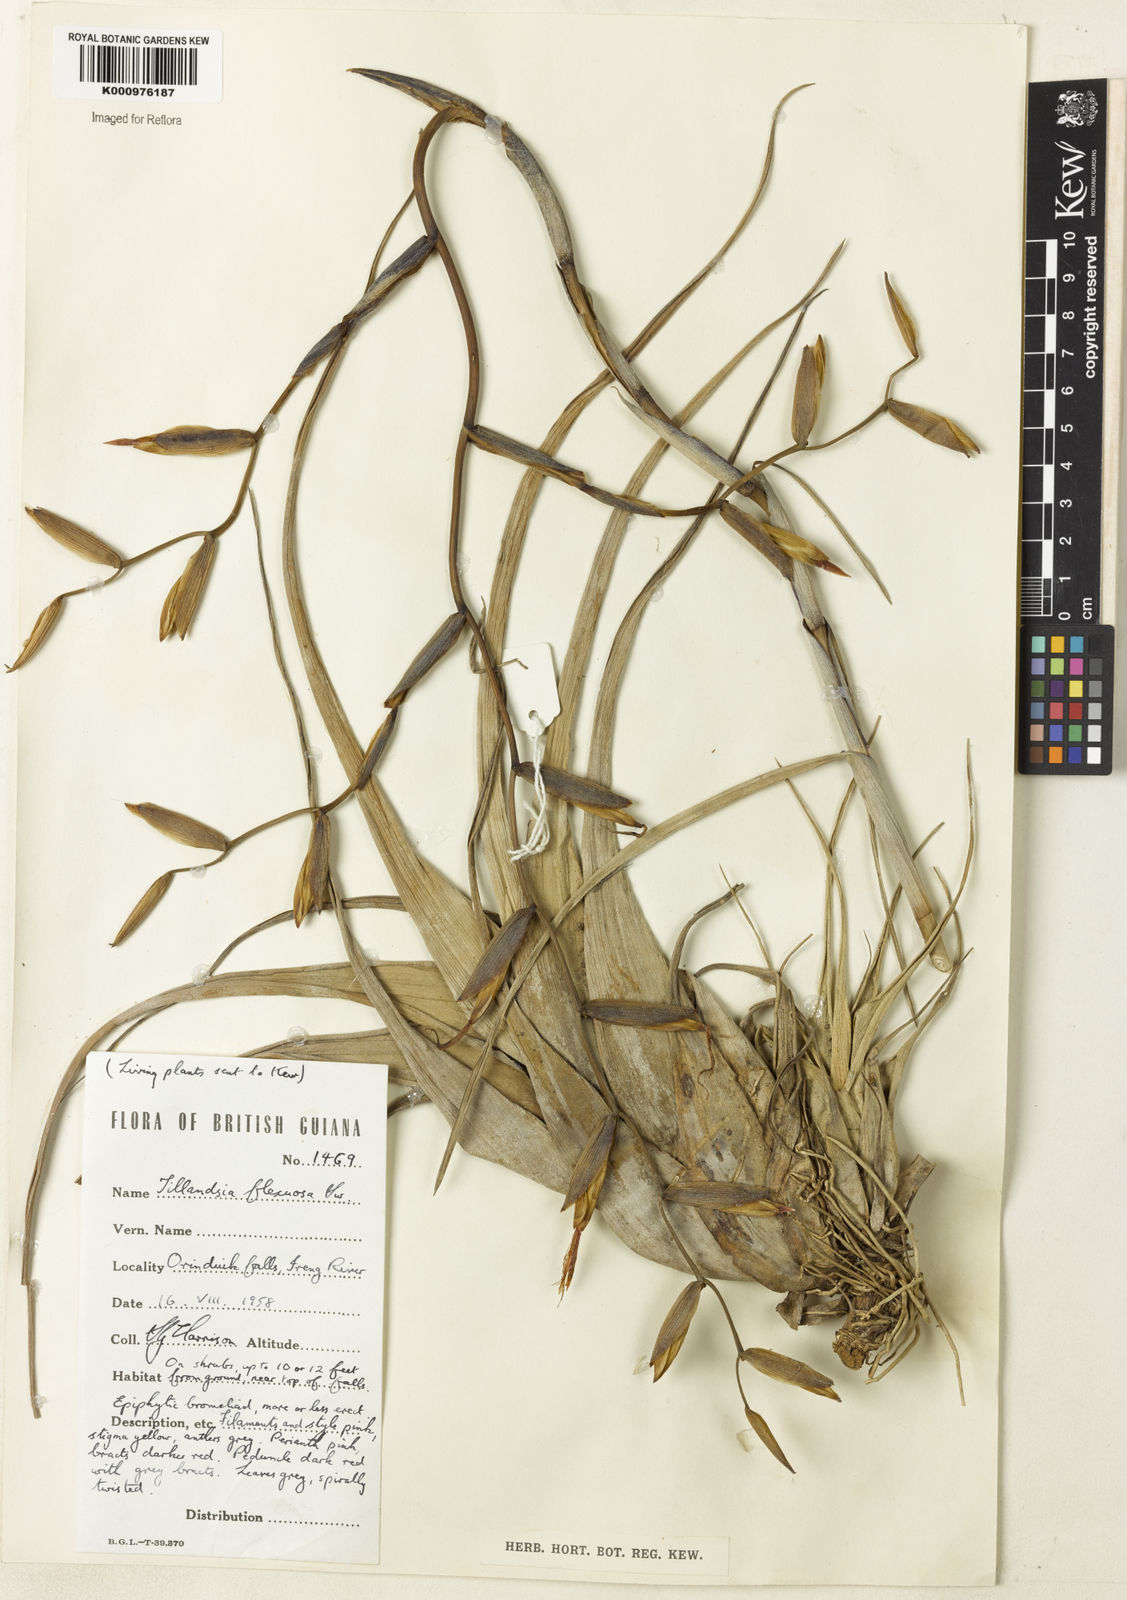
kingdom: Plantae
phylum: Tracheophyta
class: Liliopsida
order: Poales
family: Bromeliaceae
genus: Tillandsia
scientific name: Tillandsia flexuosa
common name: Banded airplant
